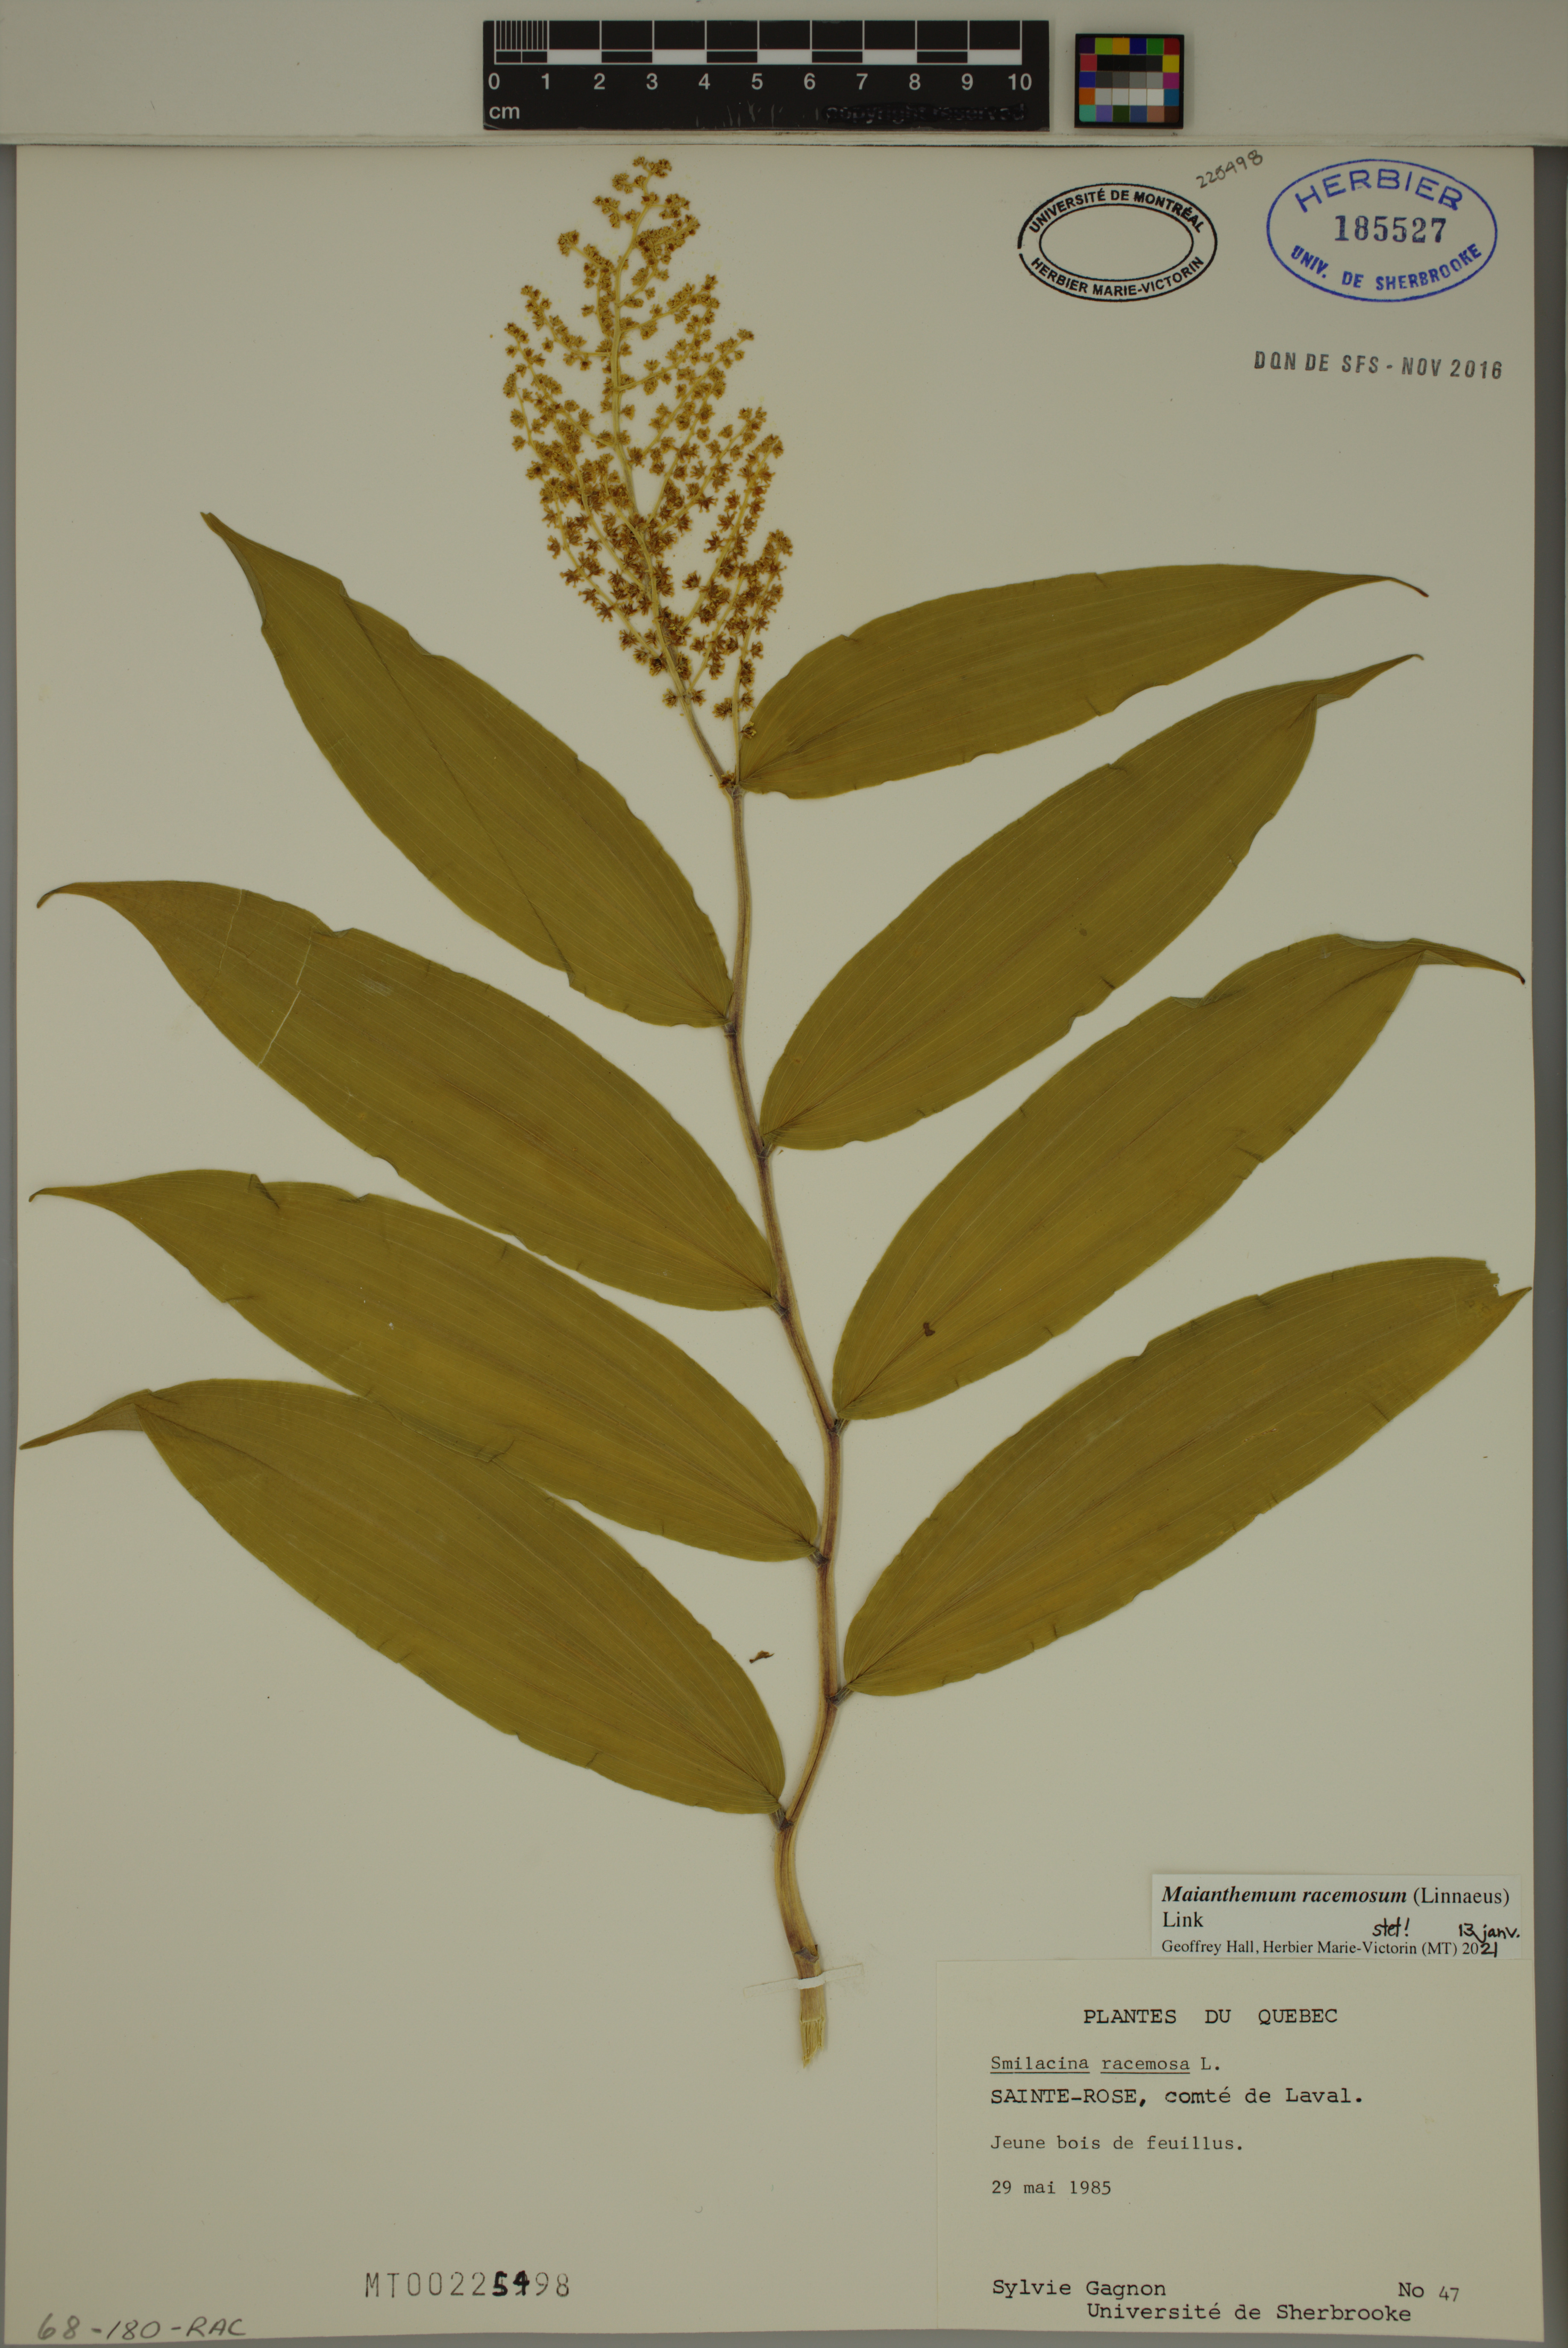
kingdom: Plantae
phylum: Tracheophyta
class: Liliopsida
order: Asparagales
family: Asparagaceae
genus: Maianthemum
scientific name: Maianthemum racemosum
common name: False spikenard
